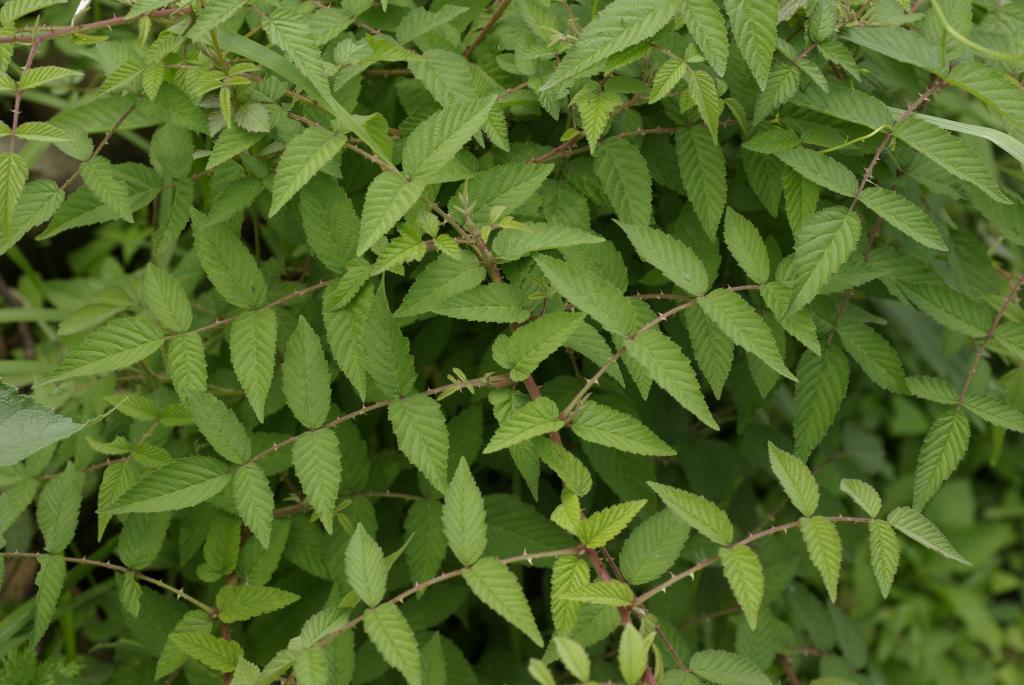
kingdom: Plantae
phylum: Tracheophyta
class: Magnoliopsida
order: Rosales
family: Rosaceae
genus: Rubus
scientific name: Rubus croceacanthus
